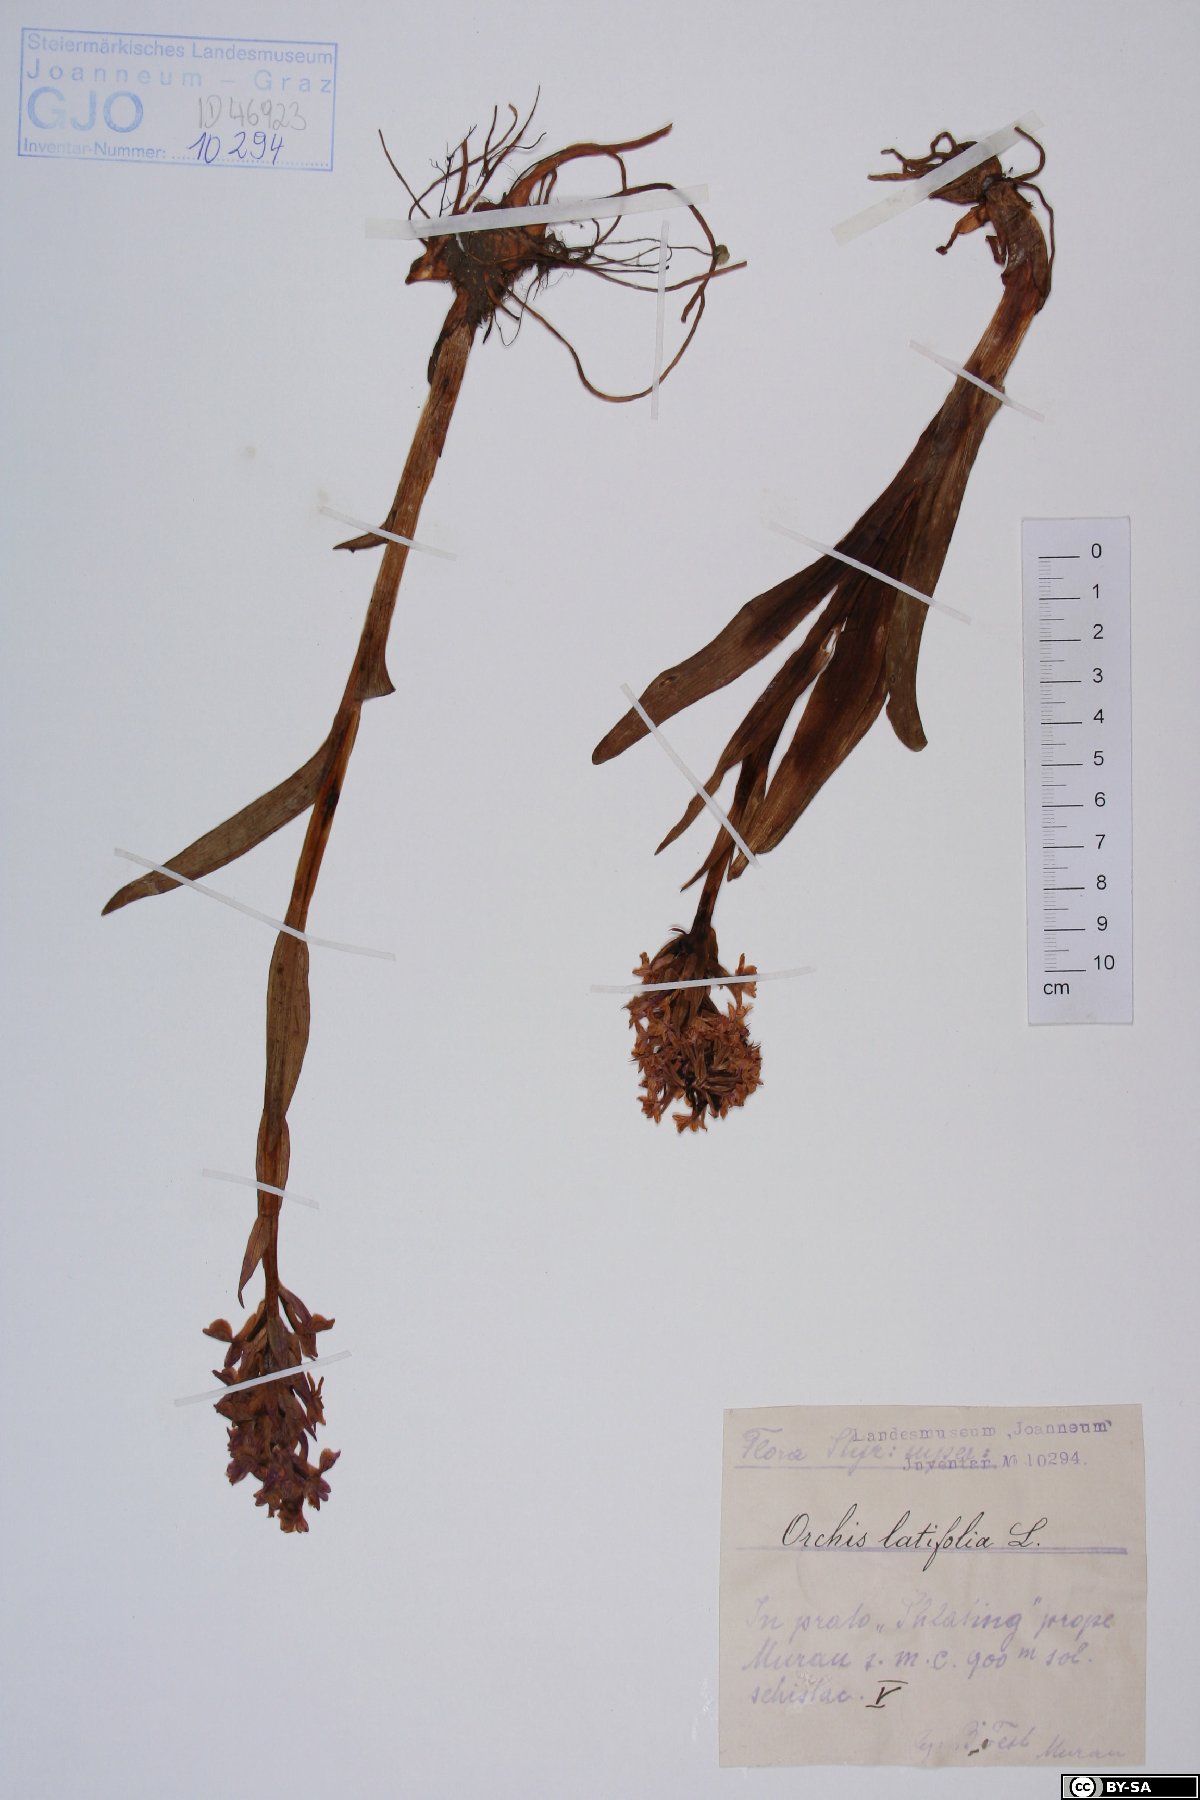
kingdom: Plantae
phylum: Tracheophyta
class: Liliopsida
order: Asparagales
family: Orchidaceae
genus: Orchis
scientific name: Orchis
